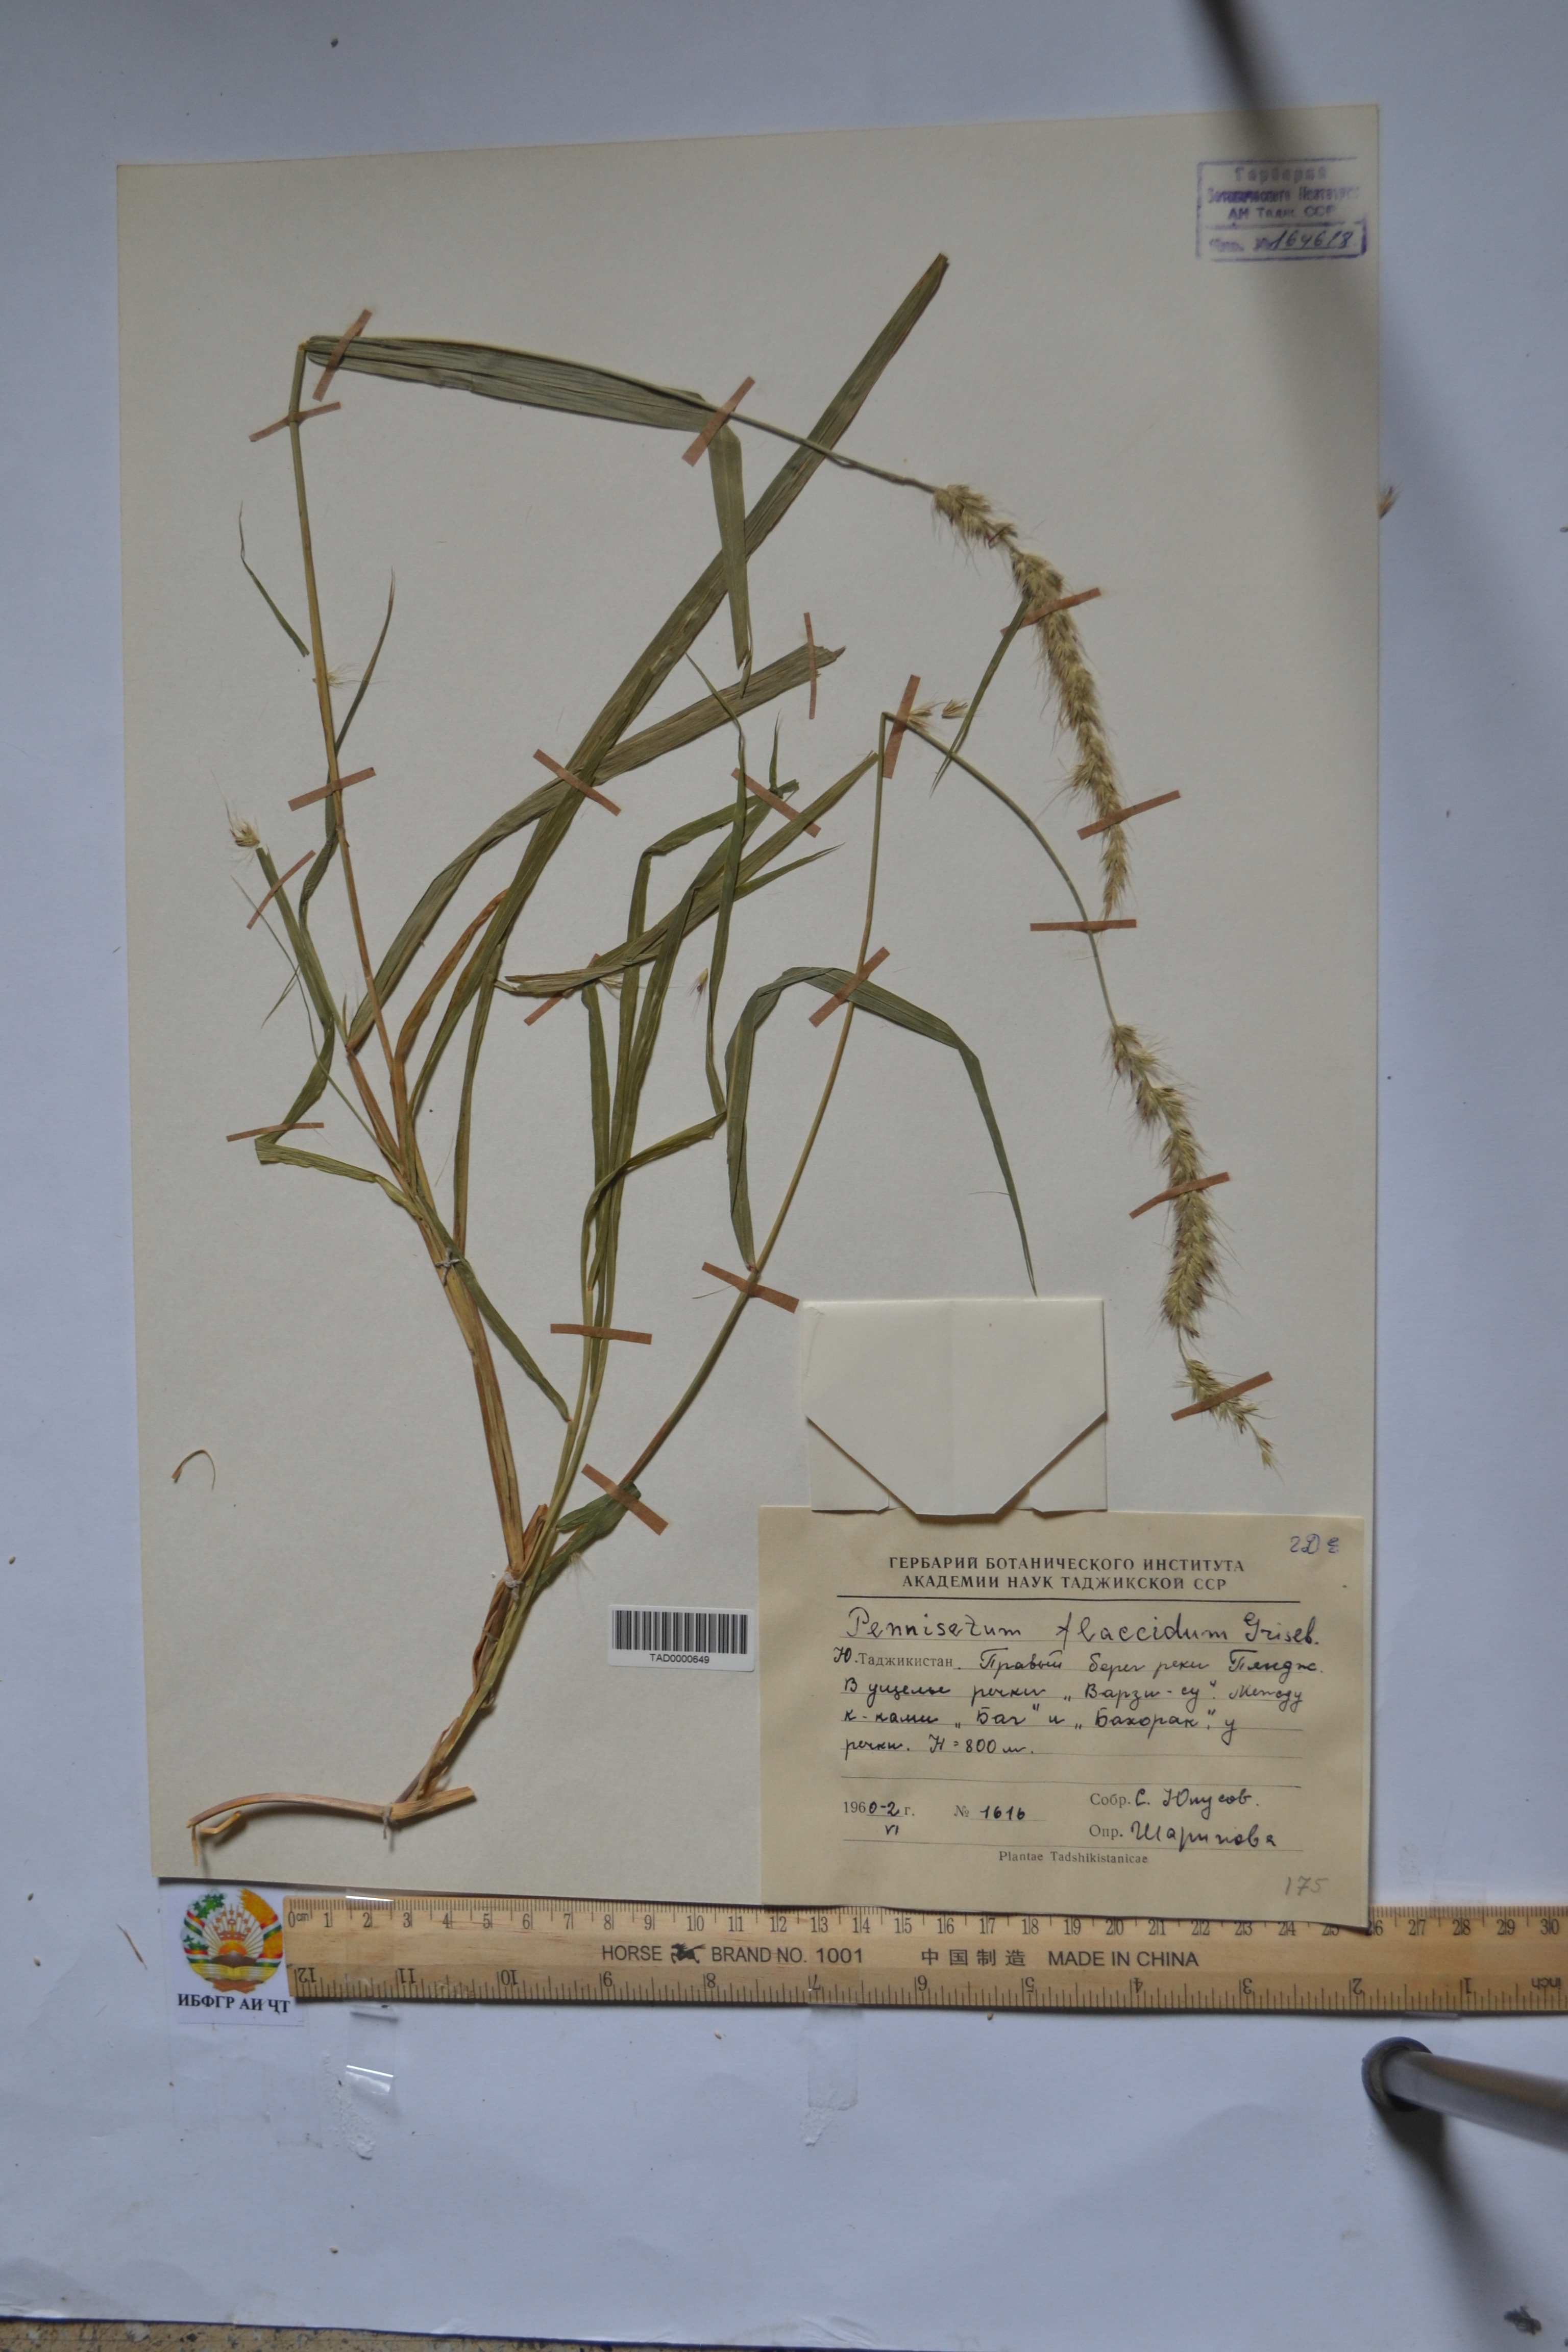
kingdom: Plantae
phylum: Tracheophyta
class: Liliopsida
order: Poales
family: Poaceae
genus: Cenchrus
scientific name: Cenchrus flaccidus
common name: Flaccid grass
